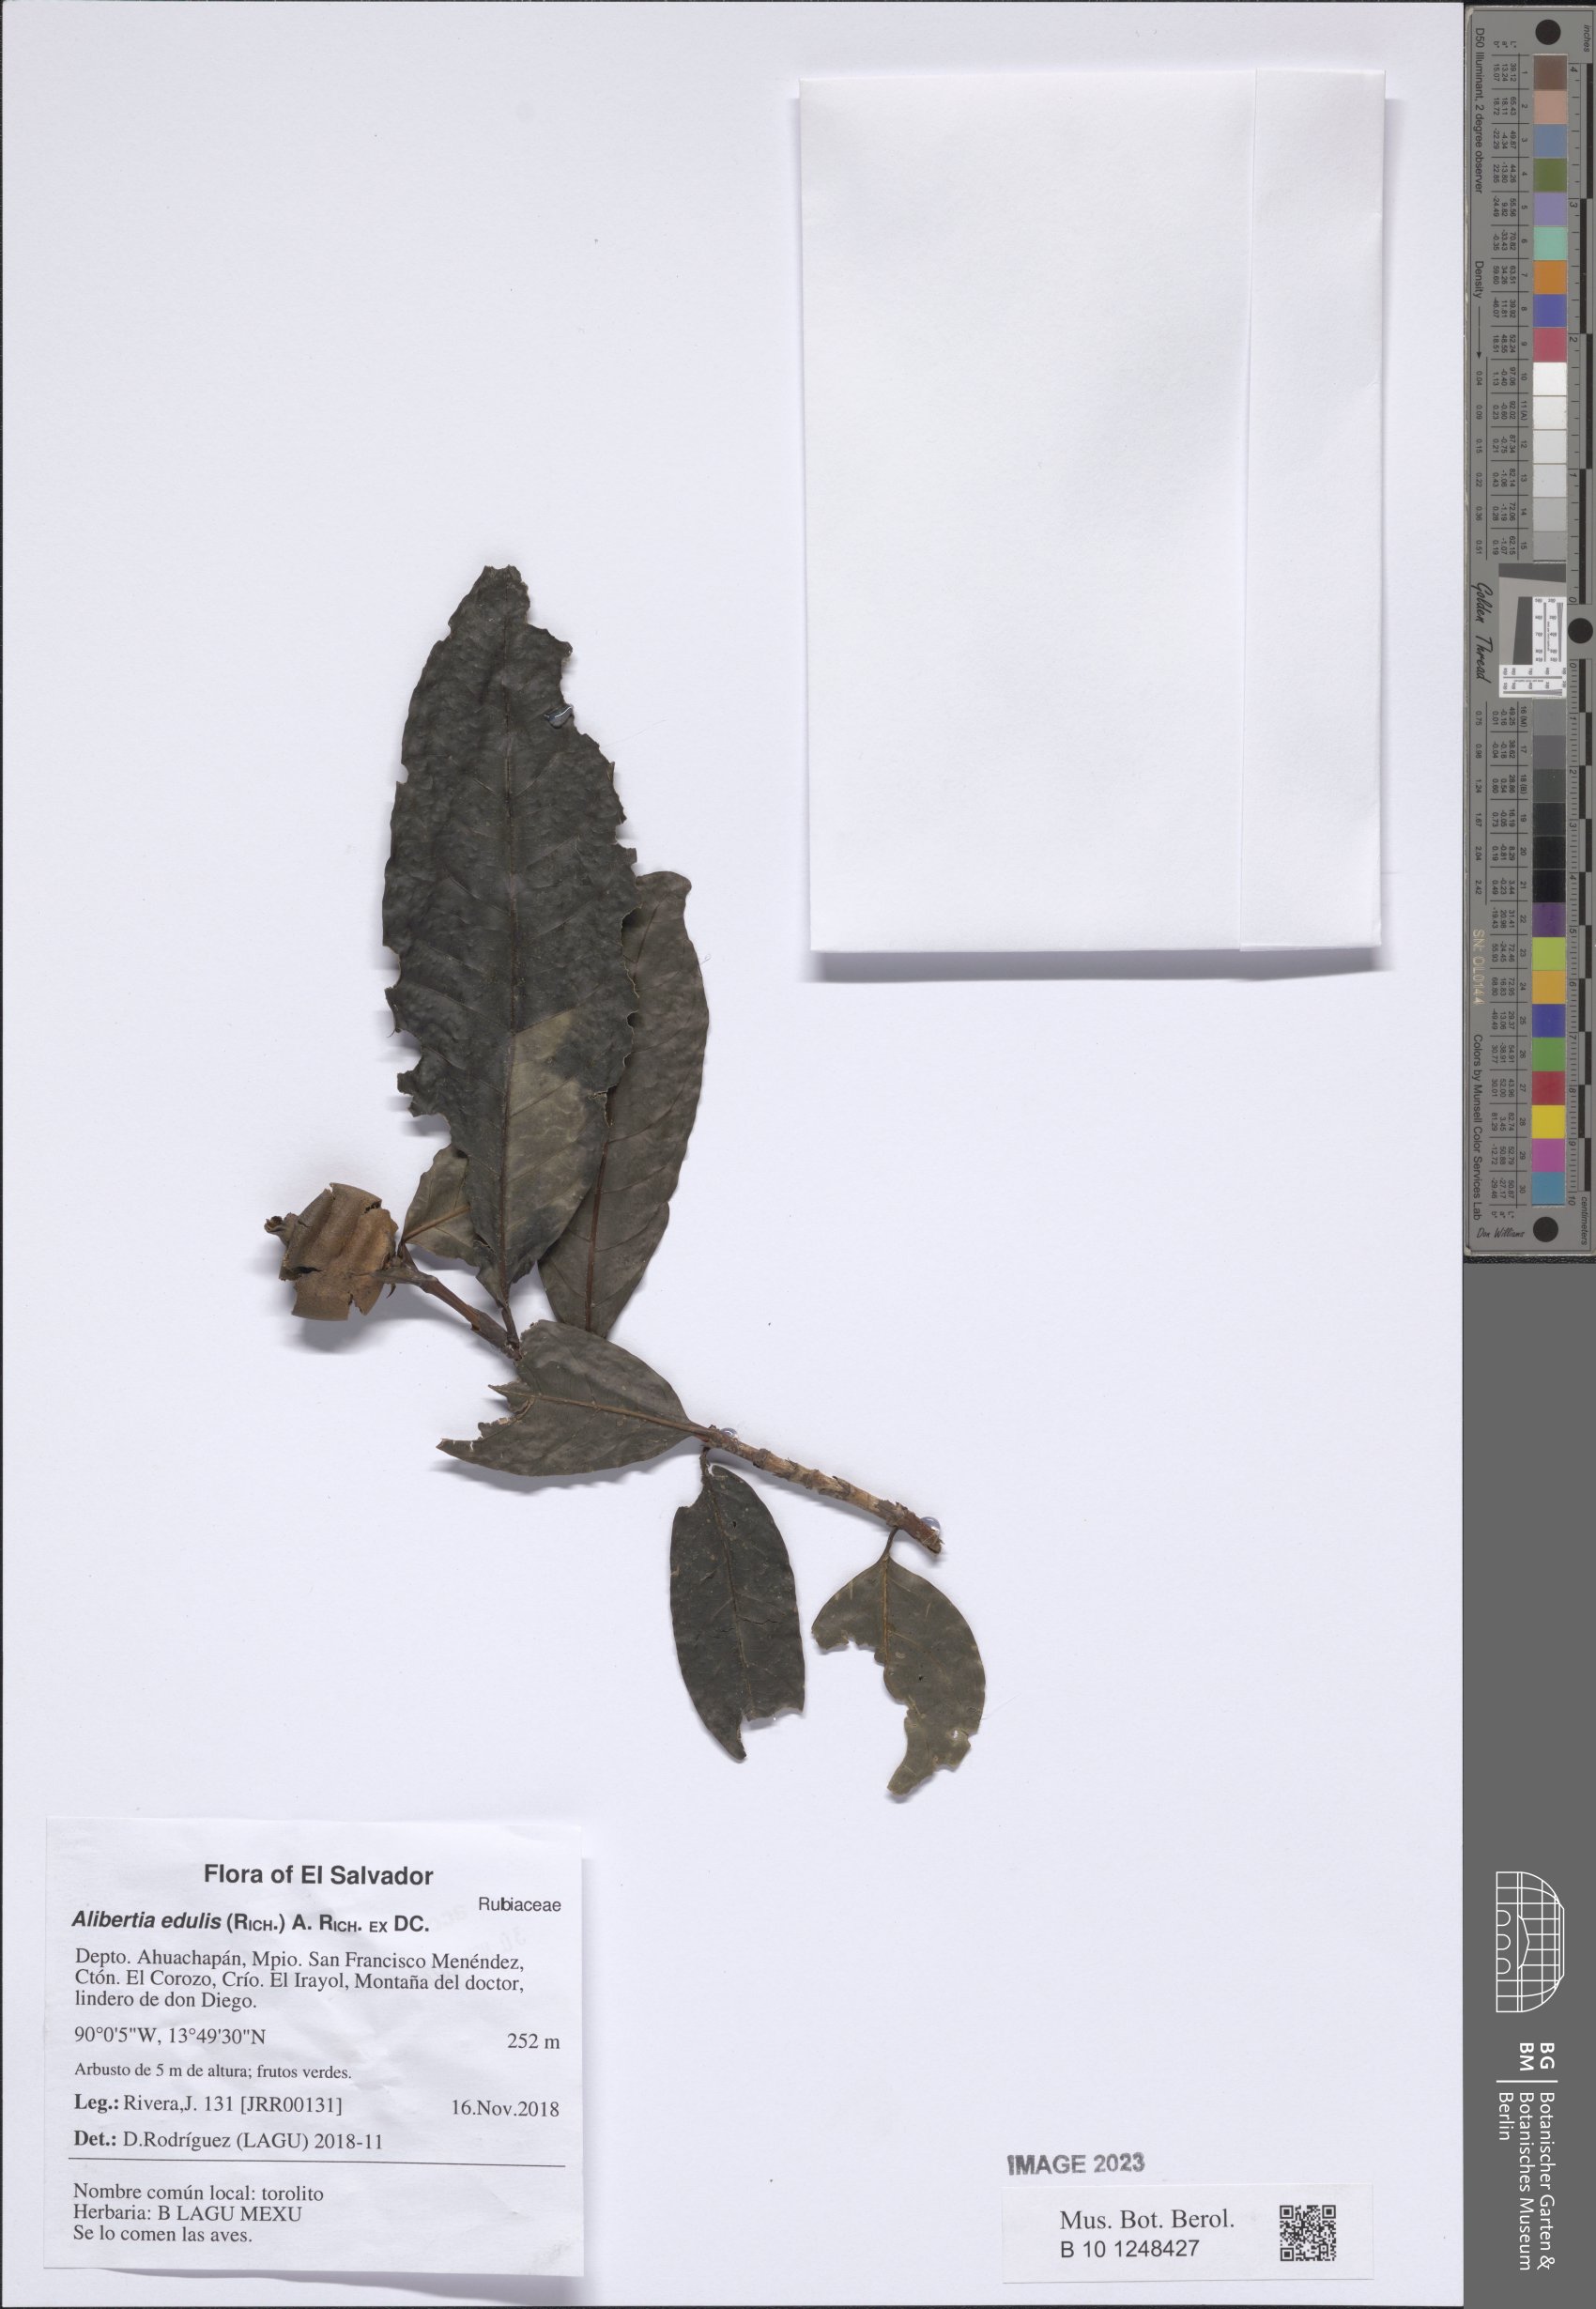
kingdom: Plantae
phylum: Tracheophyta
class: Magnoliopsida
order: Gentianales
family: Rubiaceae
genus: Alibertia
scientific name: Alibertia edulis
